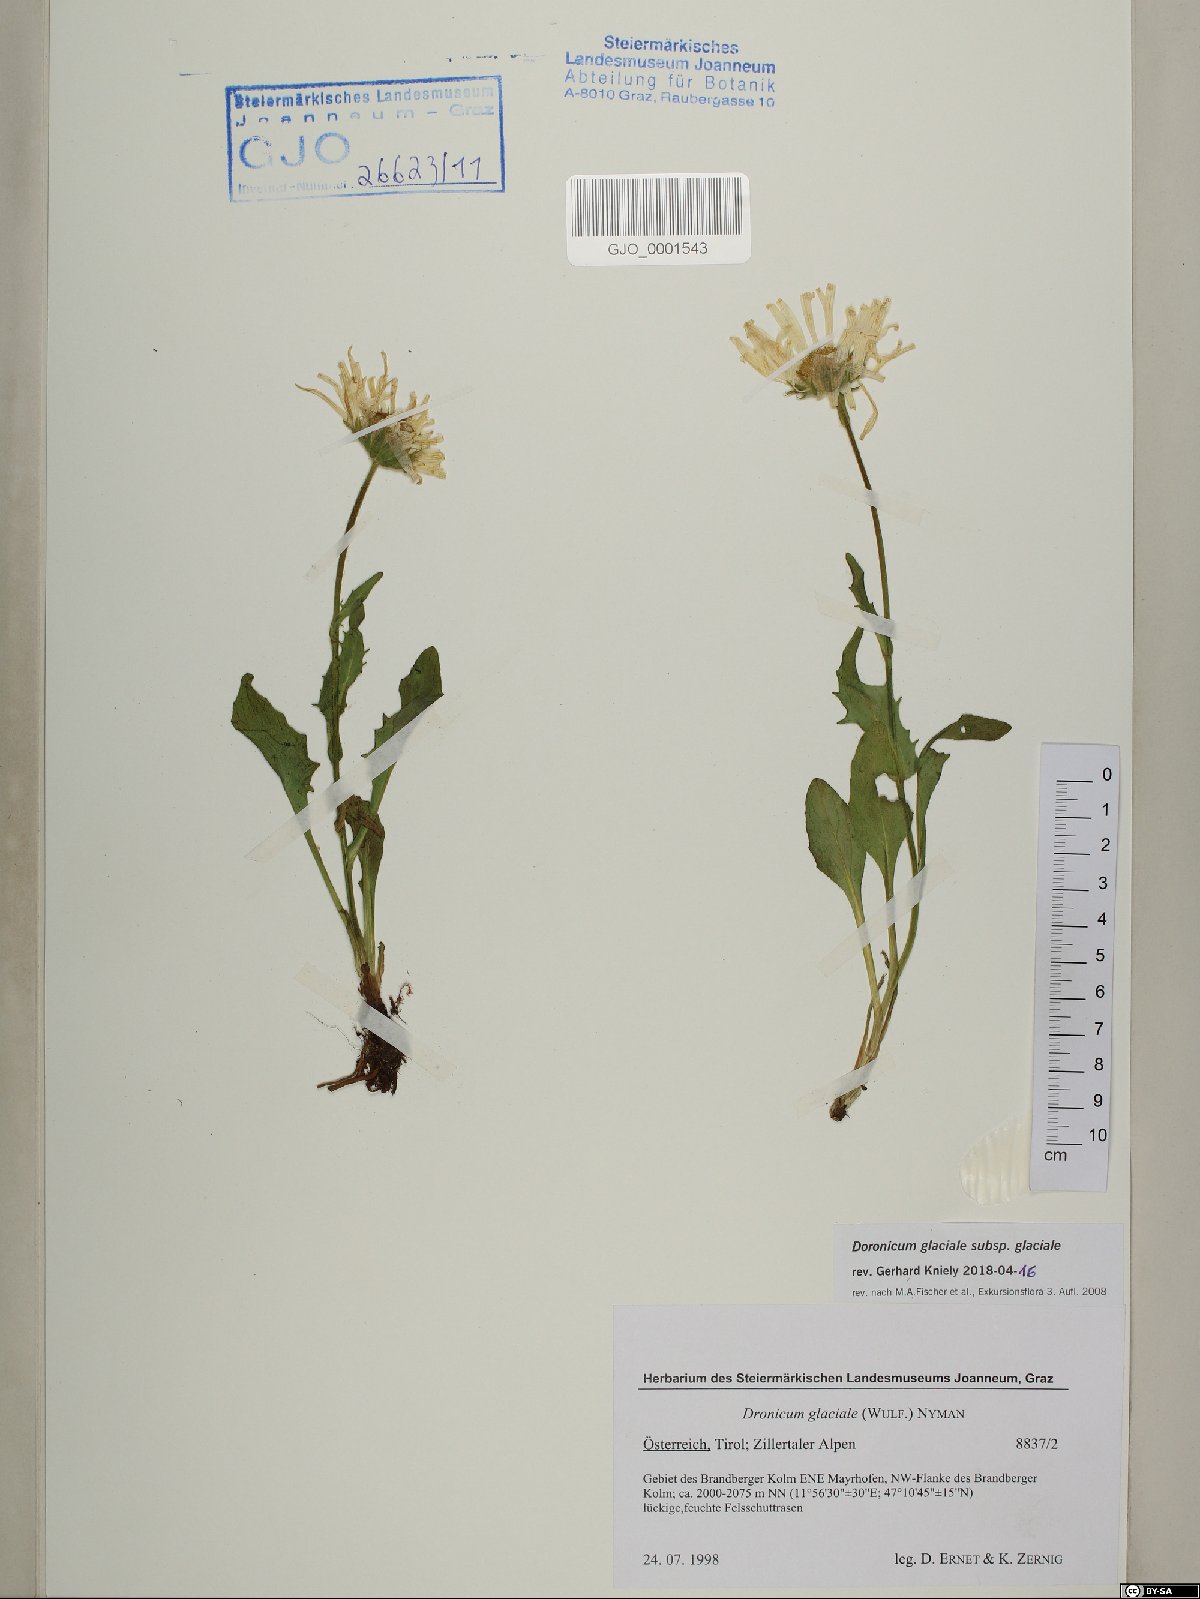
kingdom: Plantae
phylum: Tracheophyta
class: Magnoliopsida
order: Asterales
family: Asteraceae
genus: Doronicum
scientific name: Doronicum glaciale
